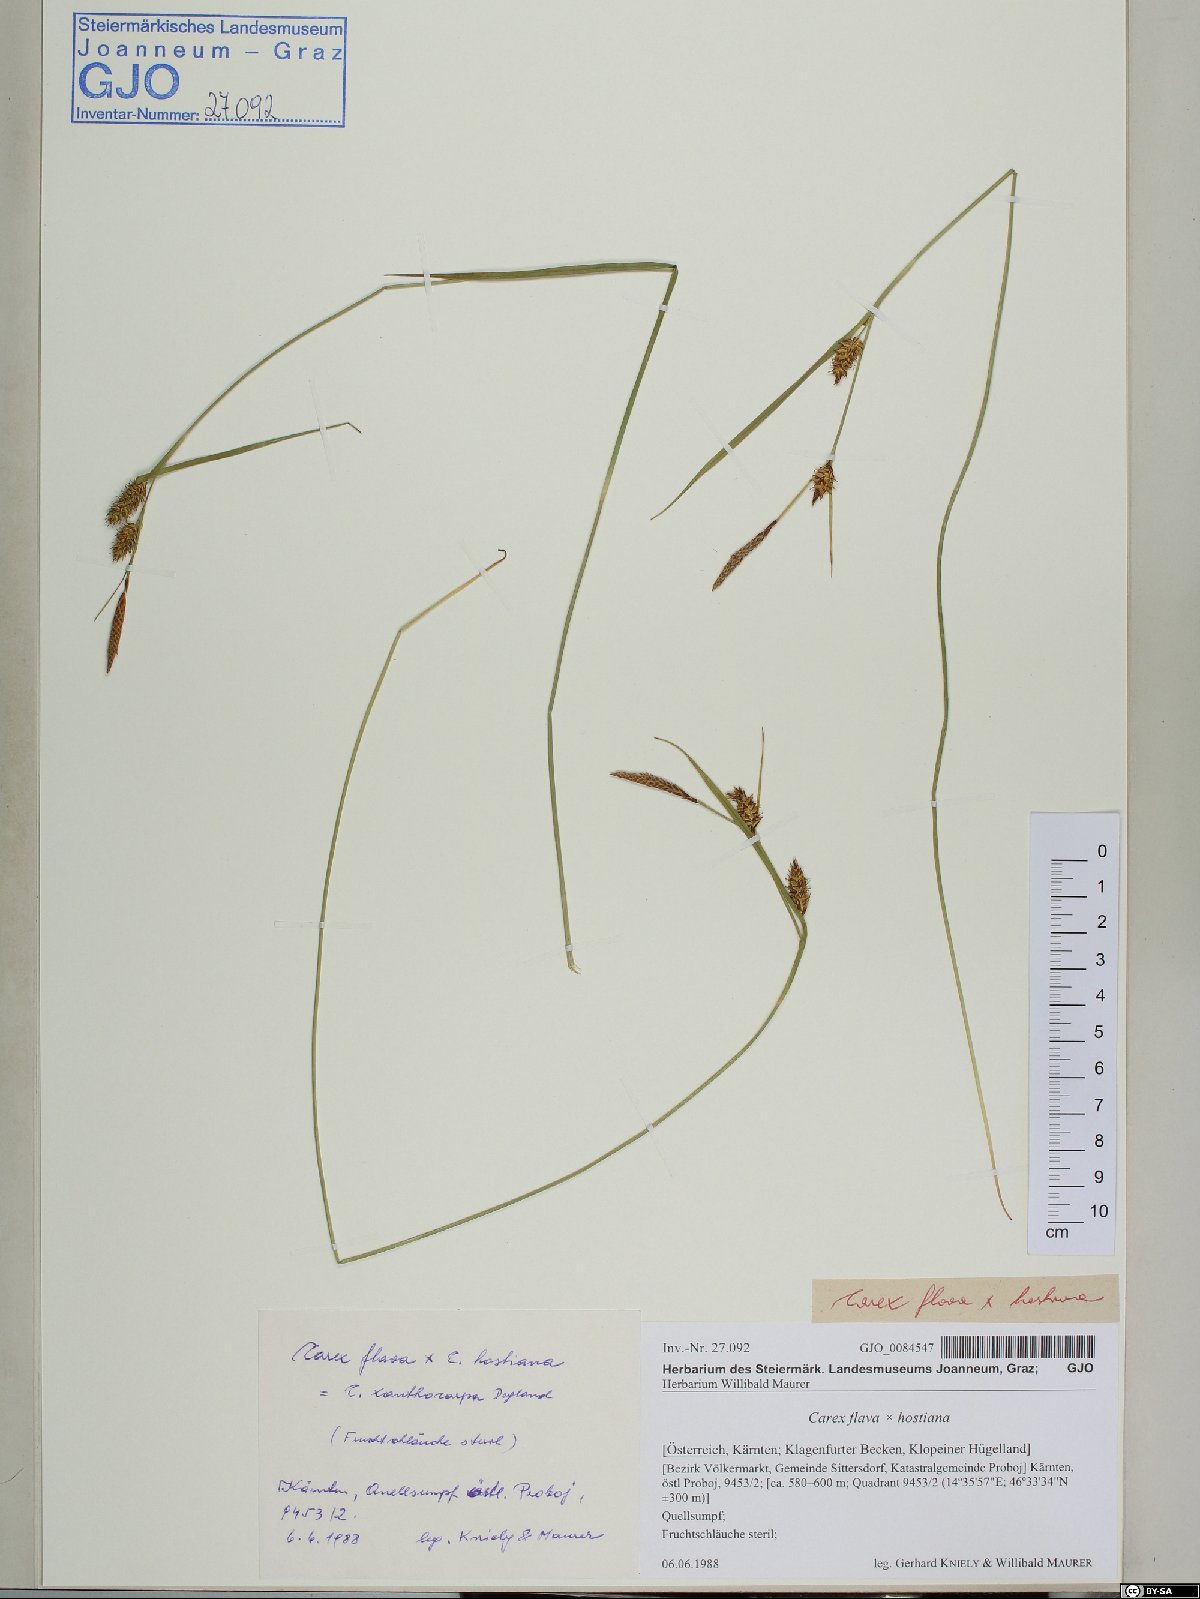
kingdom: Plantae
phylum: Tracheophyta
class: Liliopsida
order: Poales
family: Cyperaceae
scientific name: Cyperaceae
